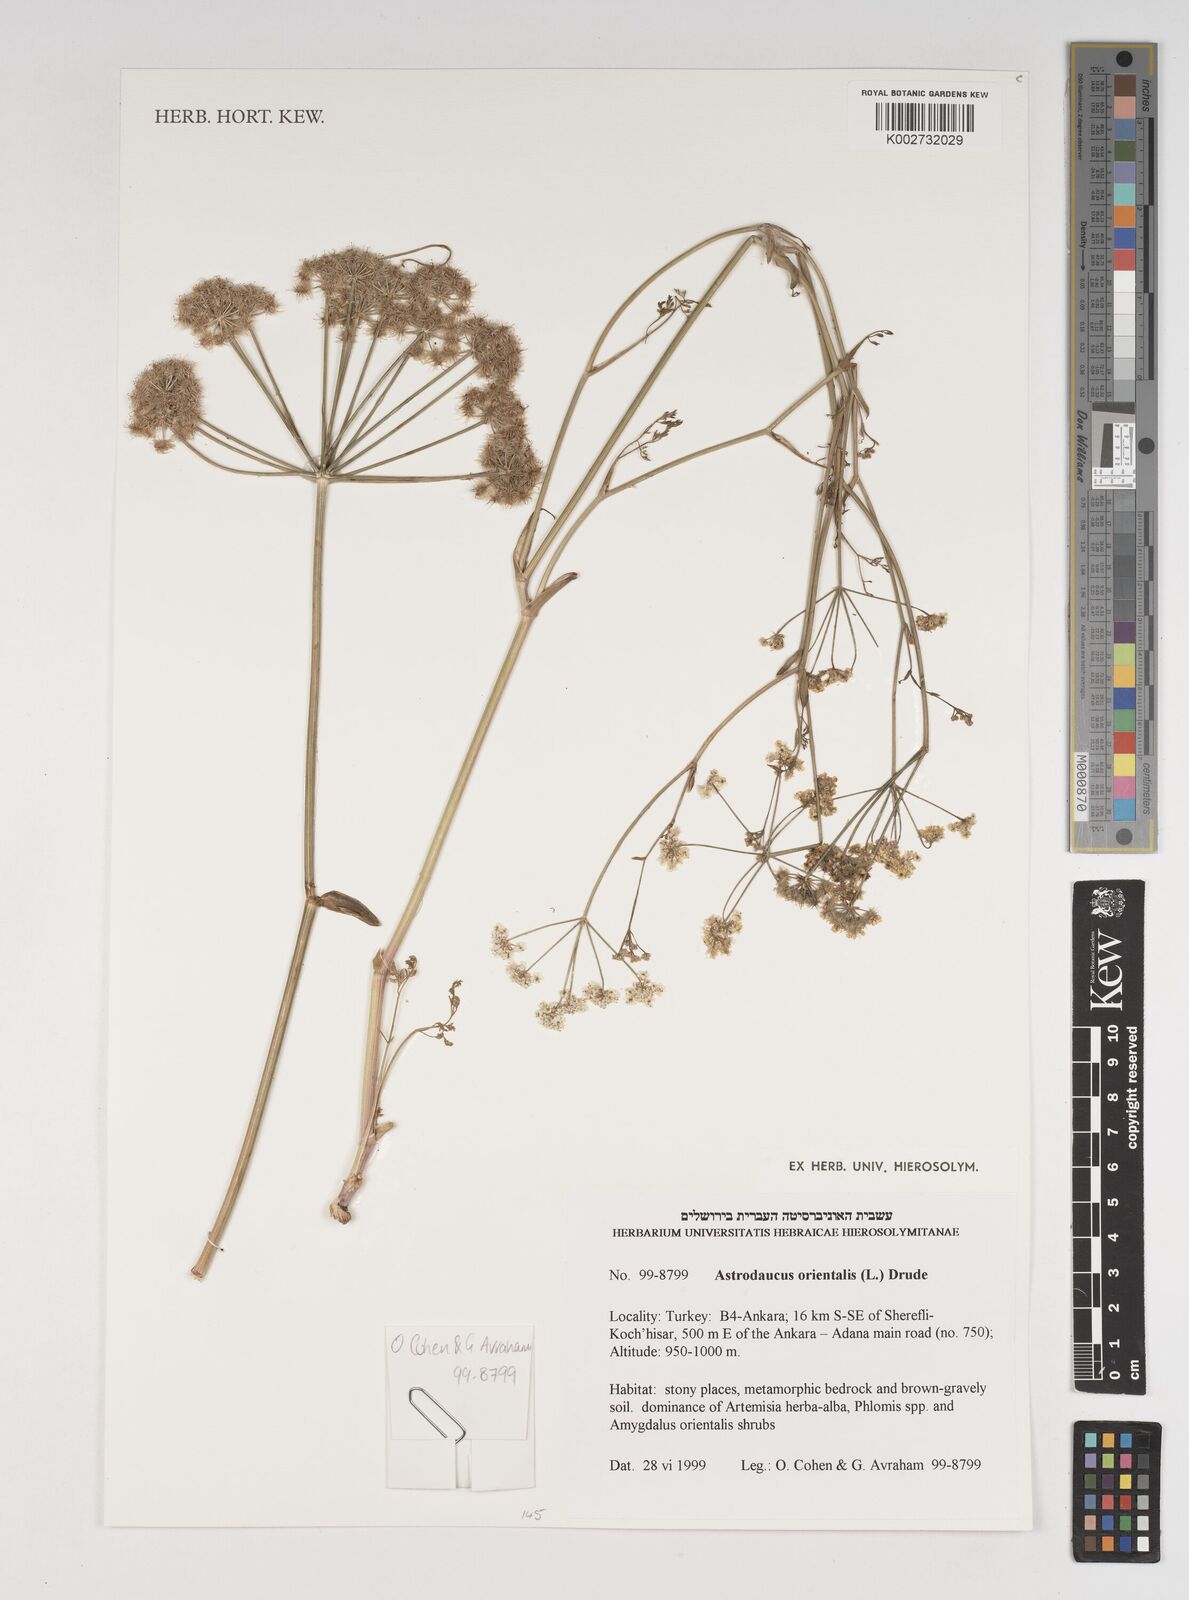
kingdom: Plantae
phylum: Tracheophyta
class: Magnoliopsida
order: Apiales
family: Apiaceae
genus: Astrodaucus
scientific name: Astrodaucus
